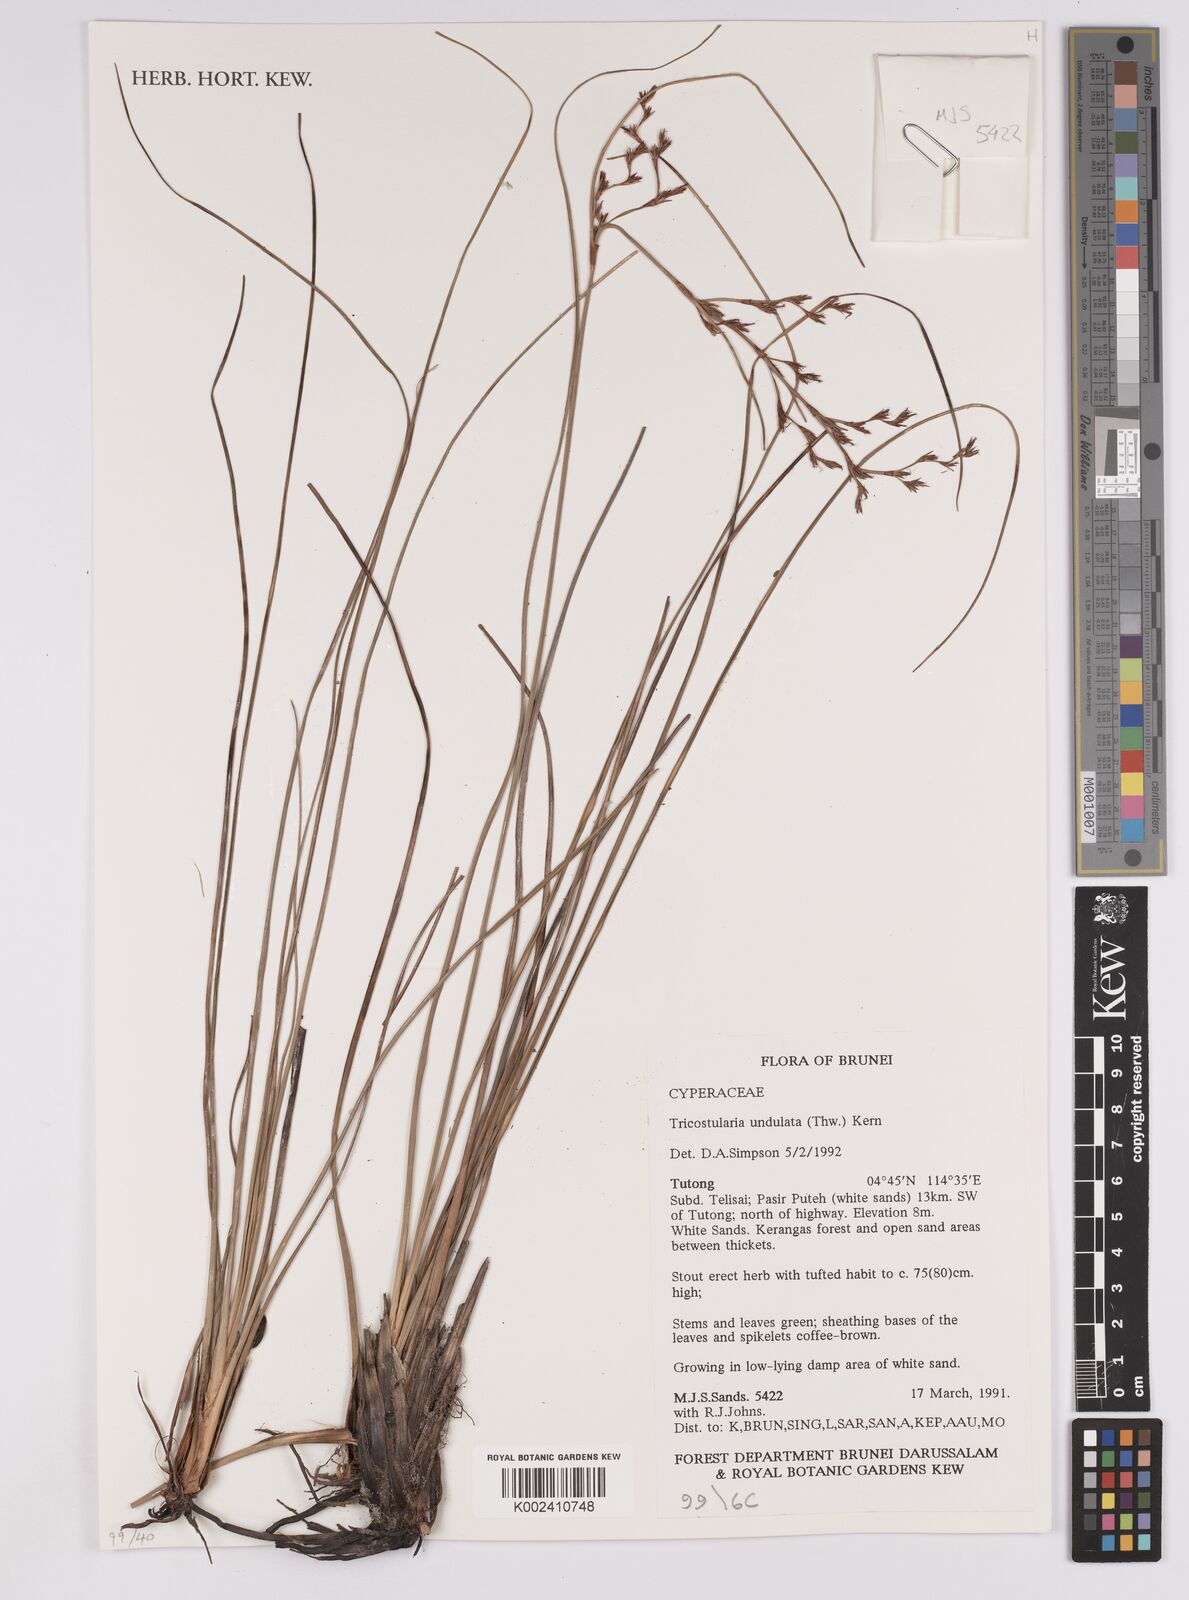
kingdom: Plantae
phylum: Tracheophyta
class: Liliopsida
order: Poales
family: Cyperaceae
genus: Anthelepis
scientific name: Anthelepis undulata
